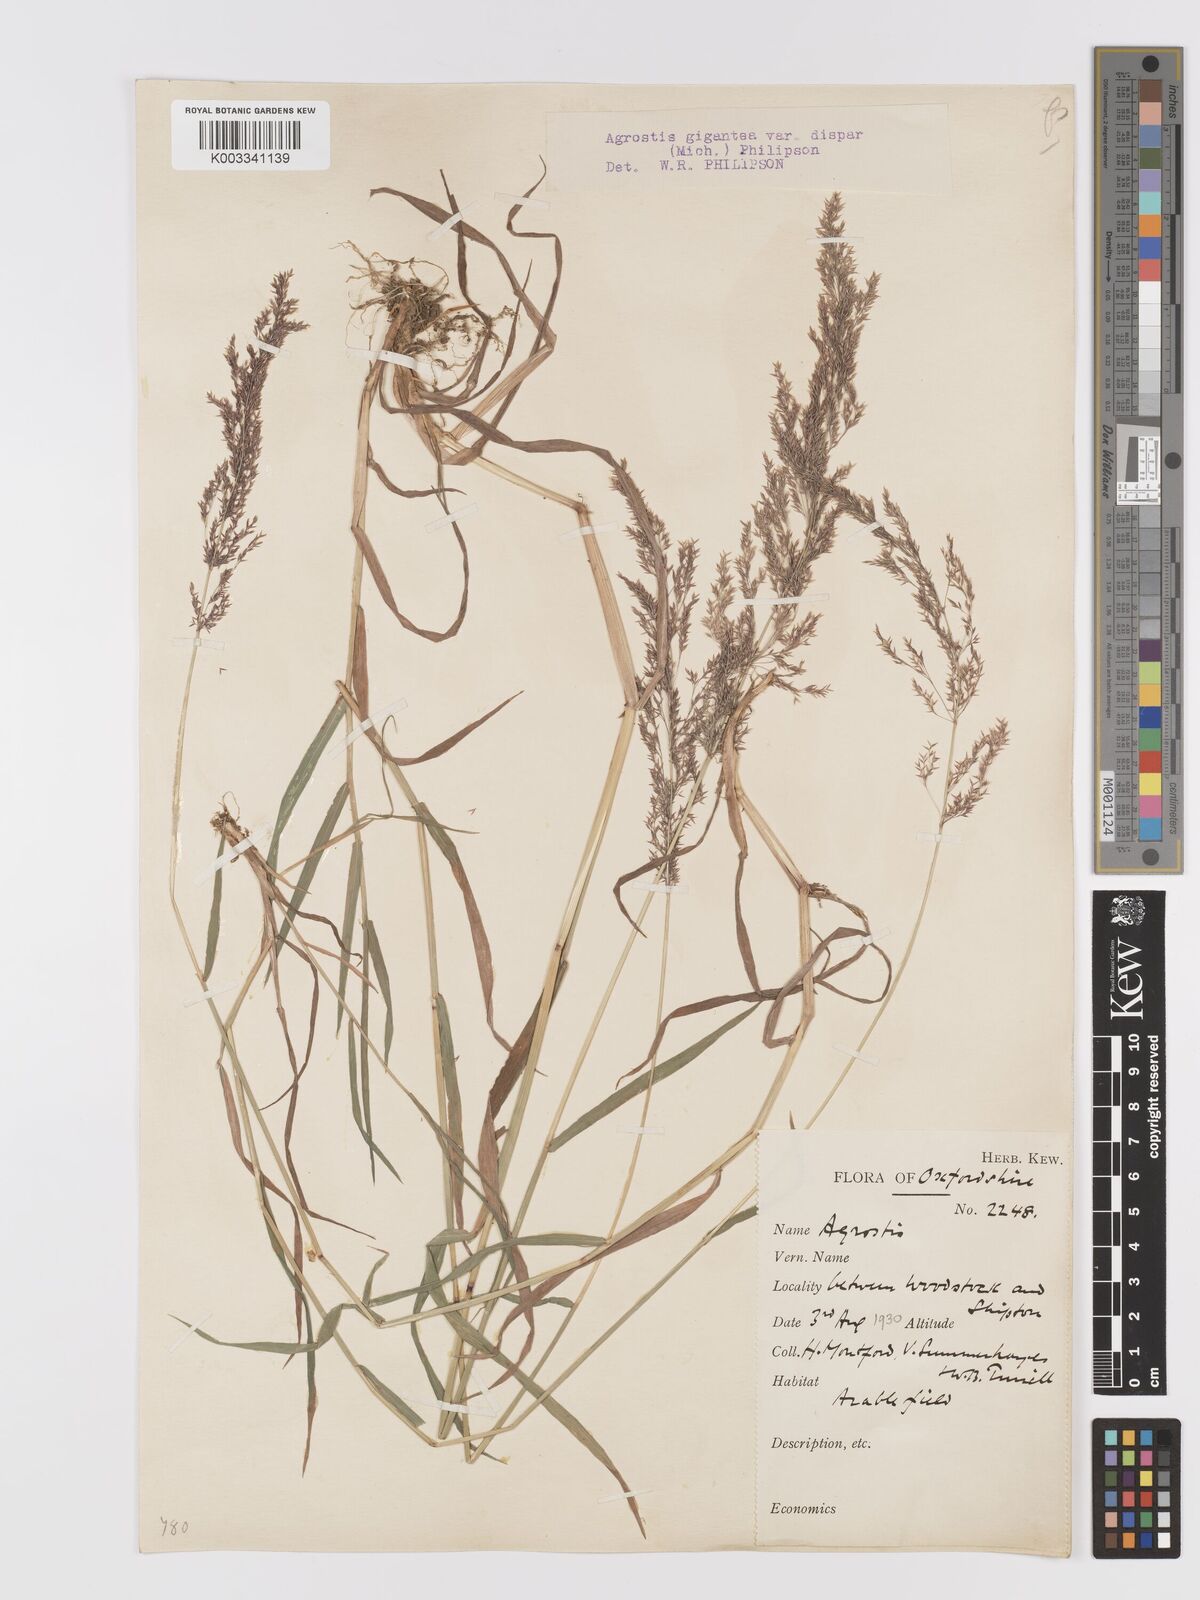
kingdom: Plantae
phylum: Tracheophyta
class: Liliopsida
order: Poales
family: Poaceae
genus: Agrostis
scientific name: Agrostis gigantea
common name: Black bent
